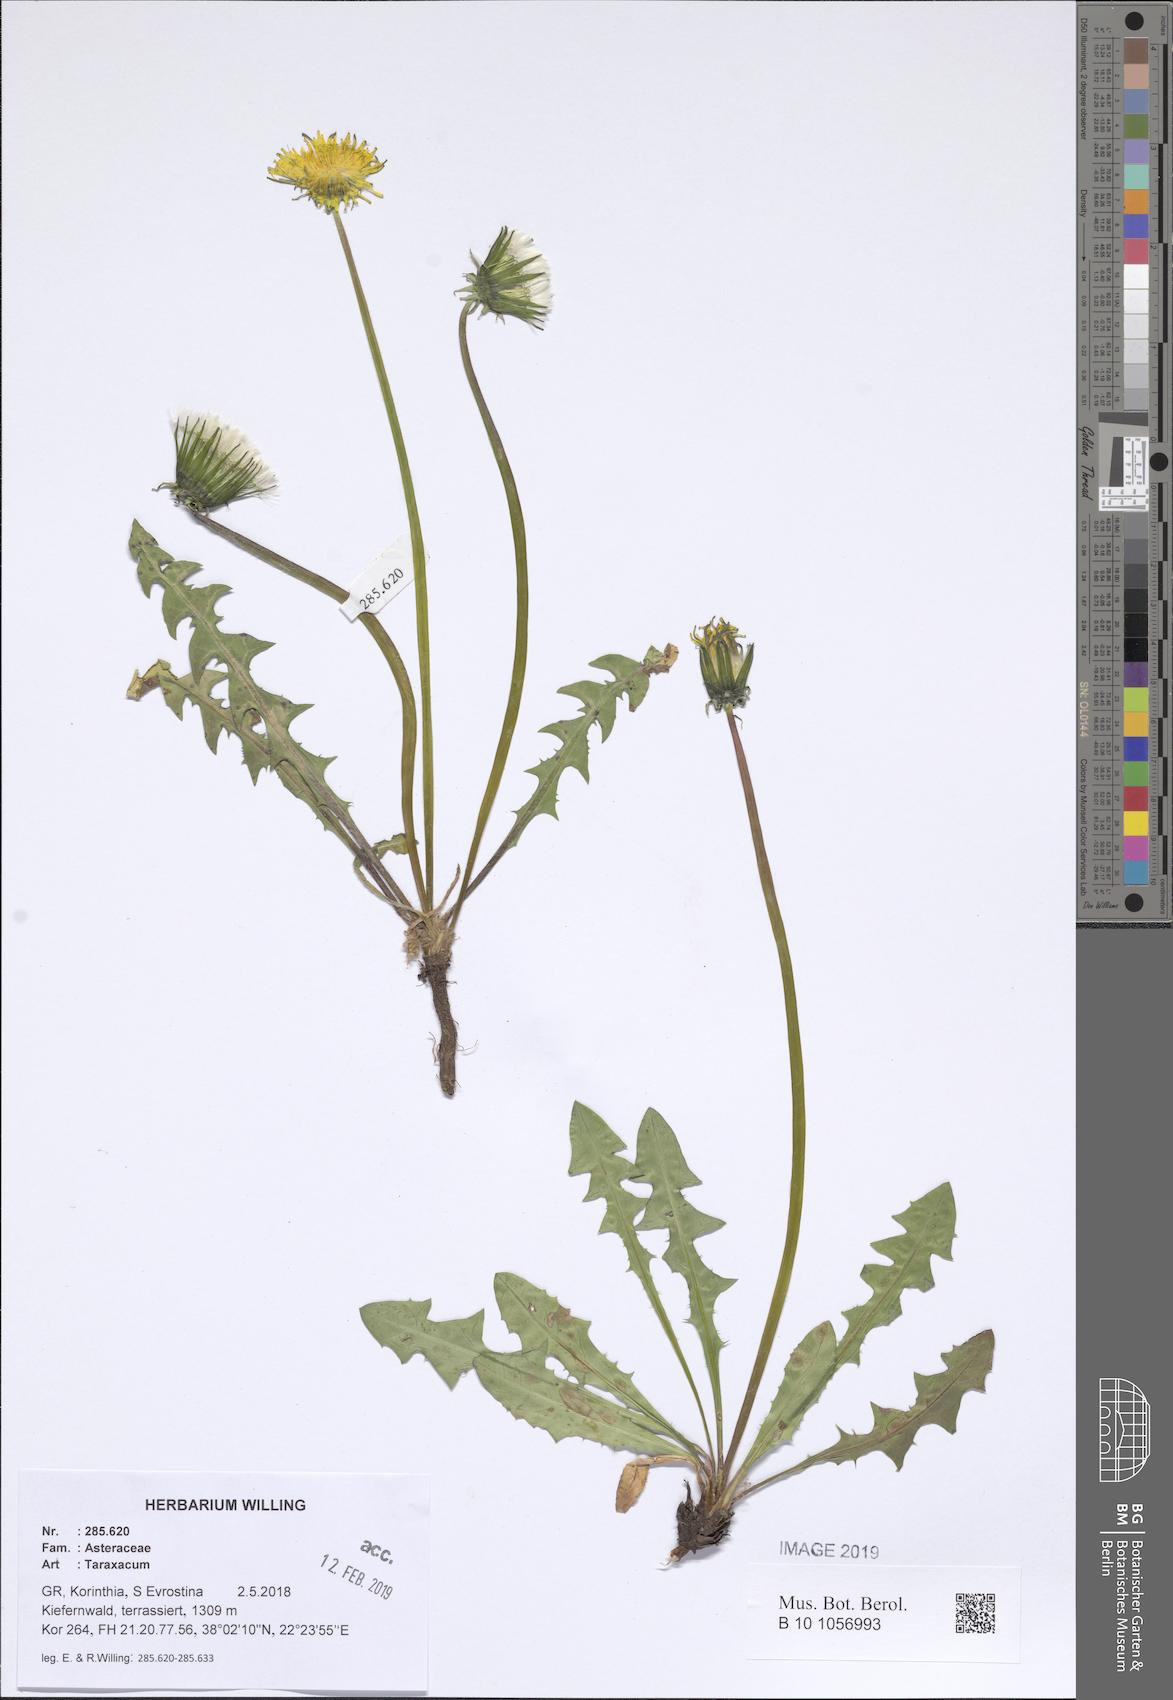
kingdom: Plantae
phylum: Tracheophyta
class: Magnoliopsida
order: Asterales
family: Asteraceae
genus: Taraxacum
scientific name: Taraxacum
